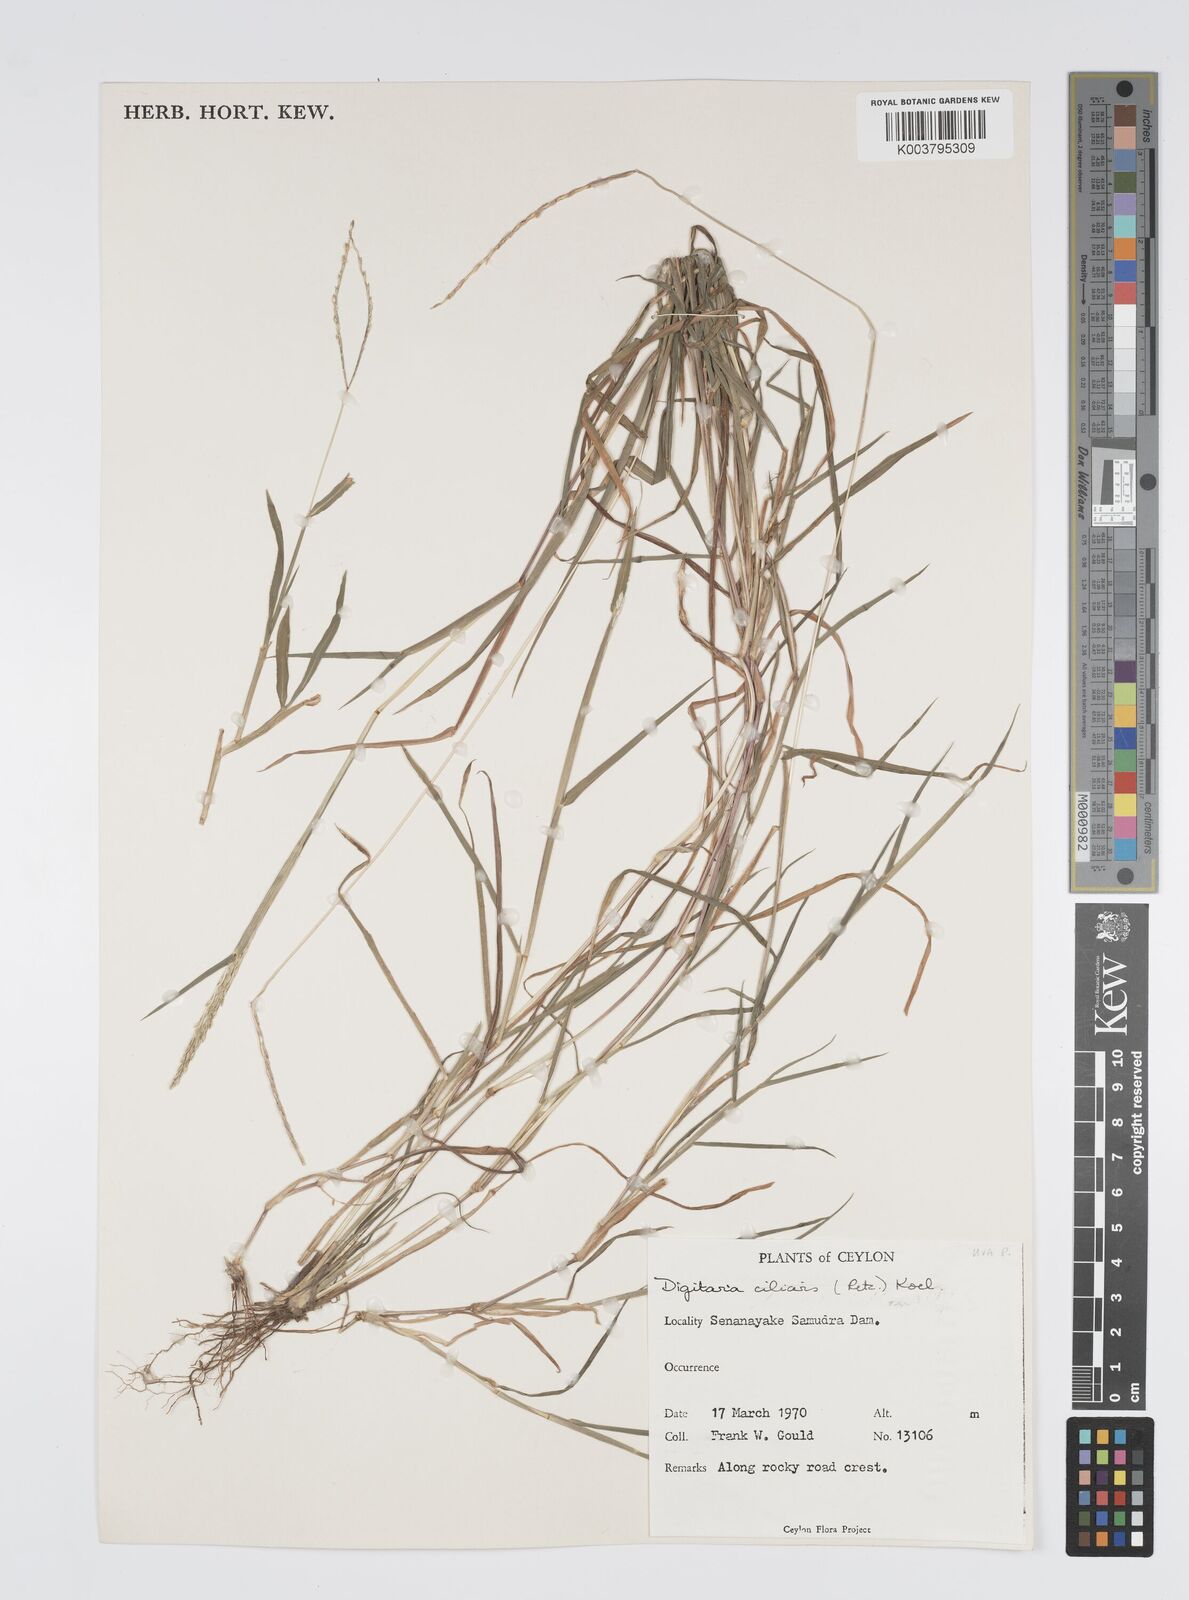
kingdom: Plantae
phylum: Tracheophyta
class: Liliopsida
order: Poales
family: Poaceae
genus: Digitaria
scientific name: Digitaria ciliaris
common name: Tropical finger-grass
